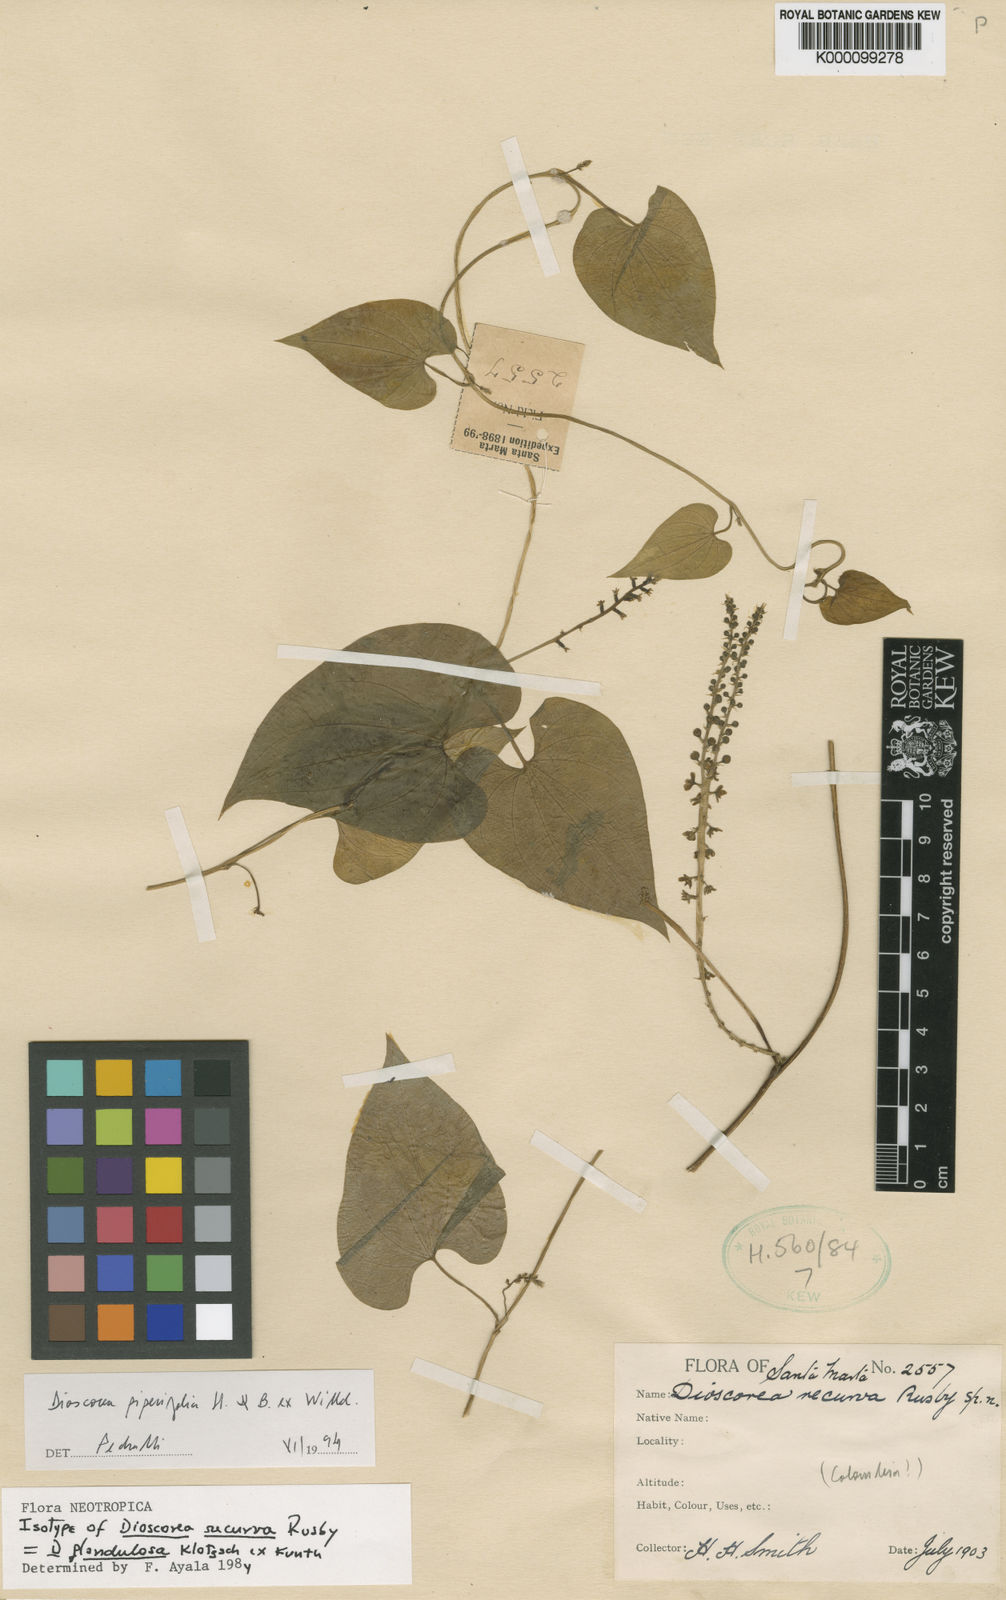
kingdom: Plantae
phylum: Tracheophyta
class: Liliopsida
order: Dioscoreales
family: Dioscoreaceae
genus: Dioscorea
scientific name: Dioscorea glandulosa
